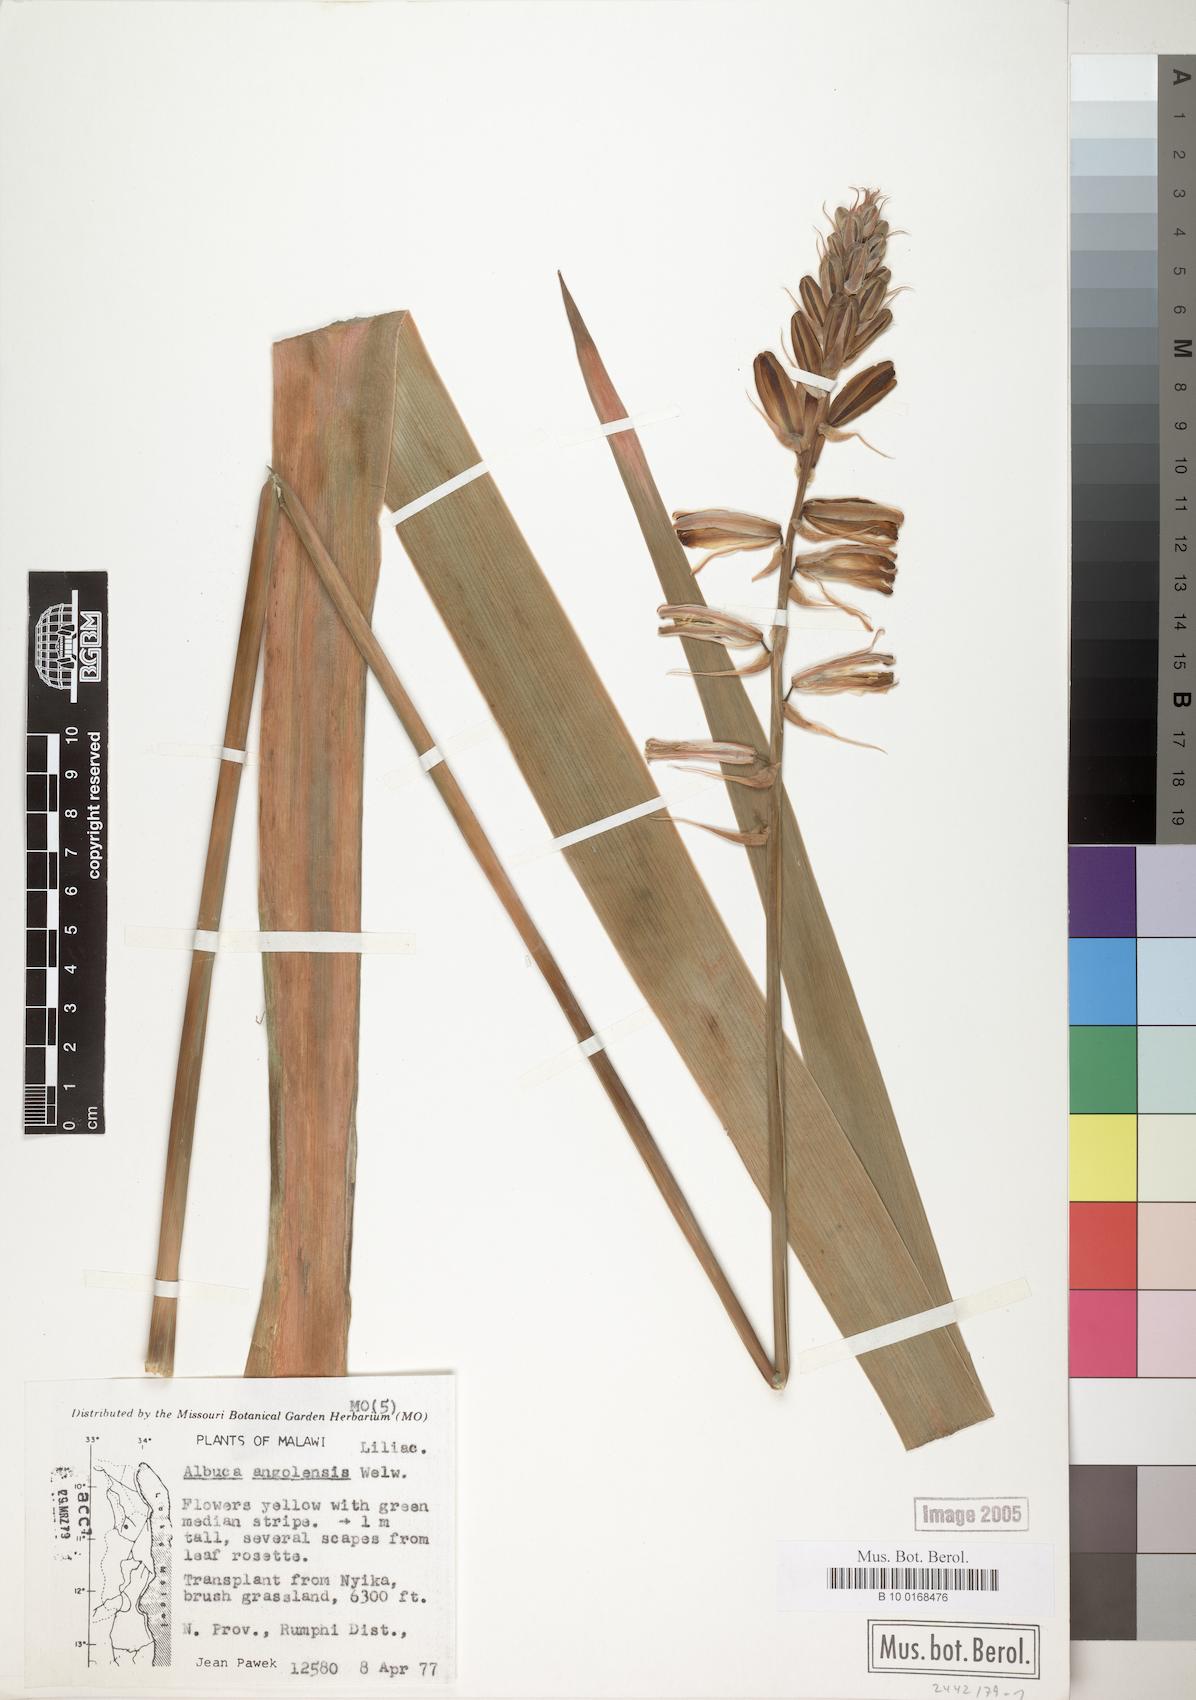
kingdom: Plantae
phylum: Tracheophyta
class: Liliopsida
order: Asparagales
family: Asparagaceae
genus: Albuca
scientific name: Albuca abyssinica
